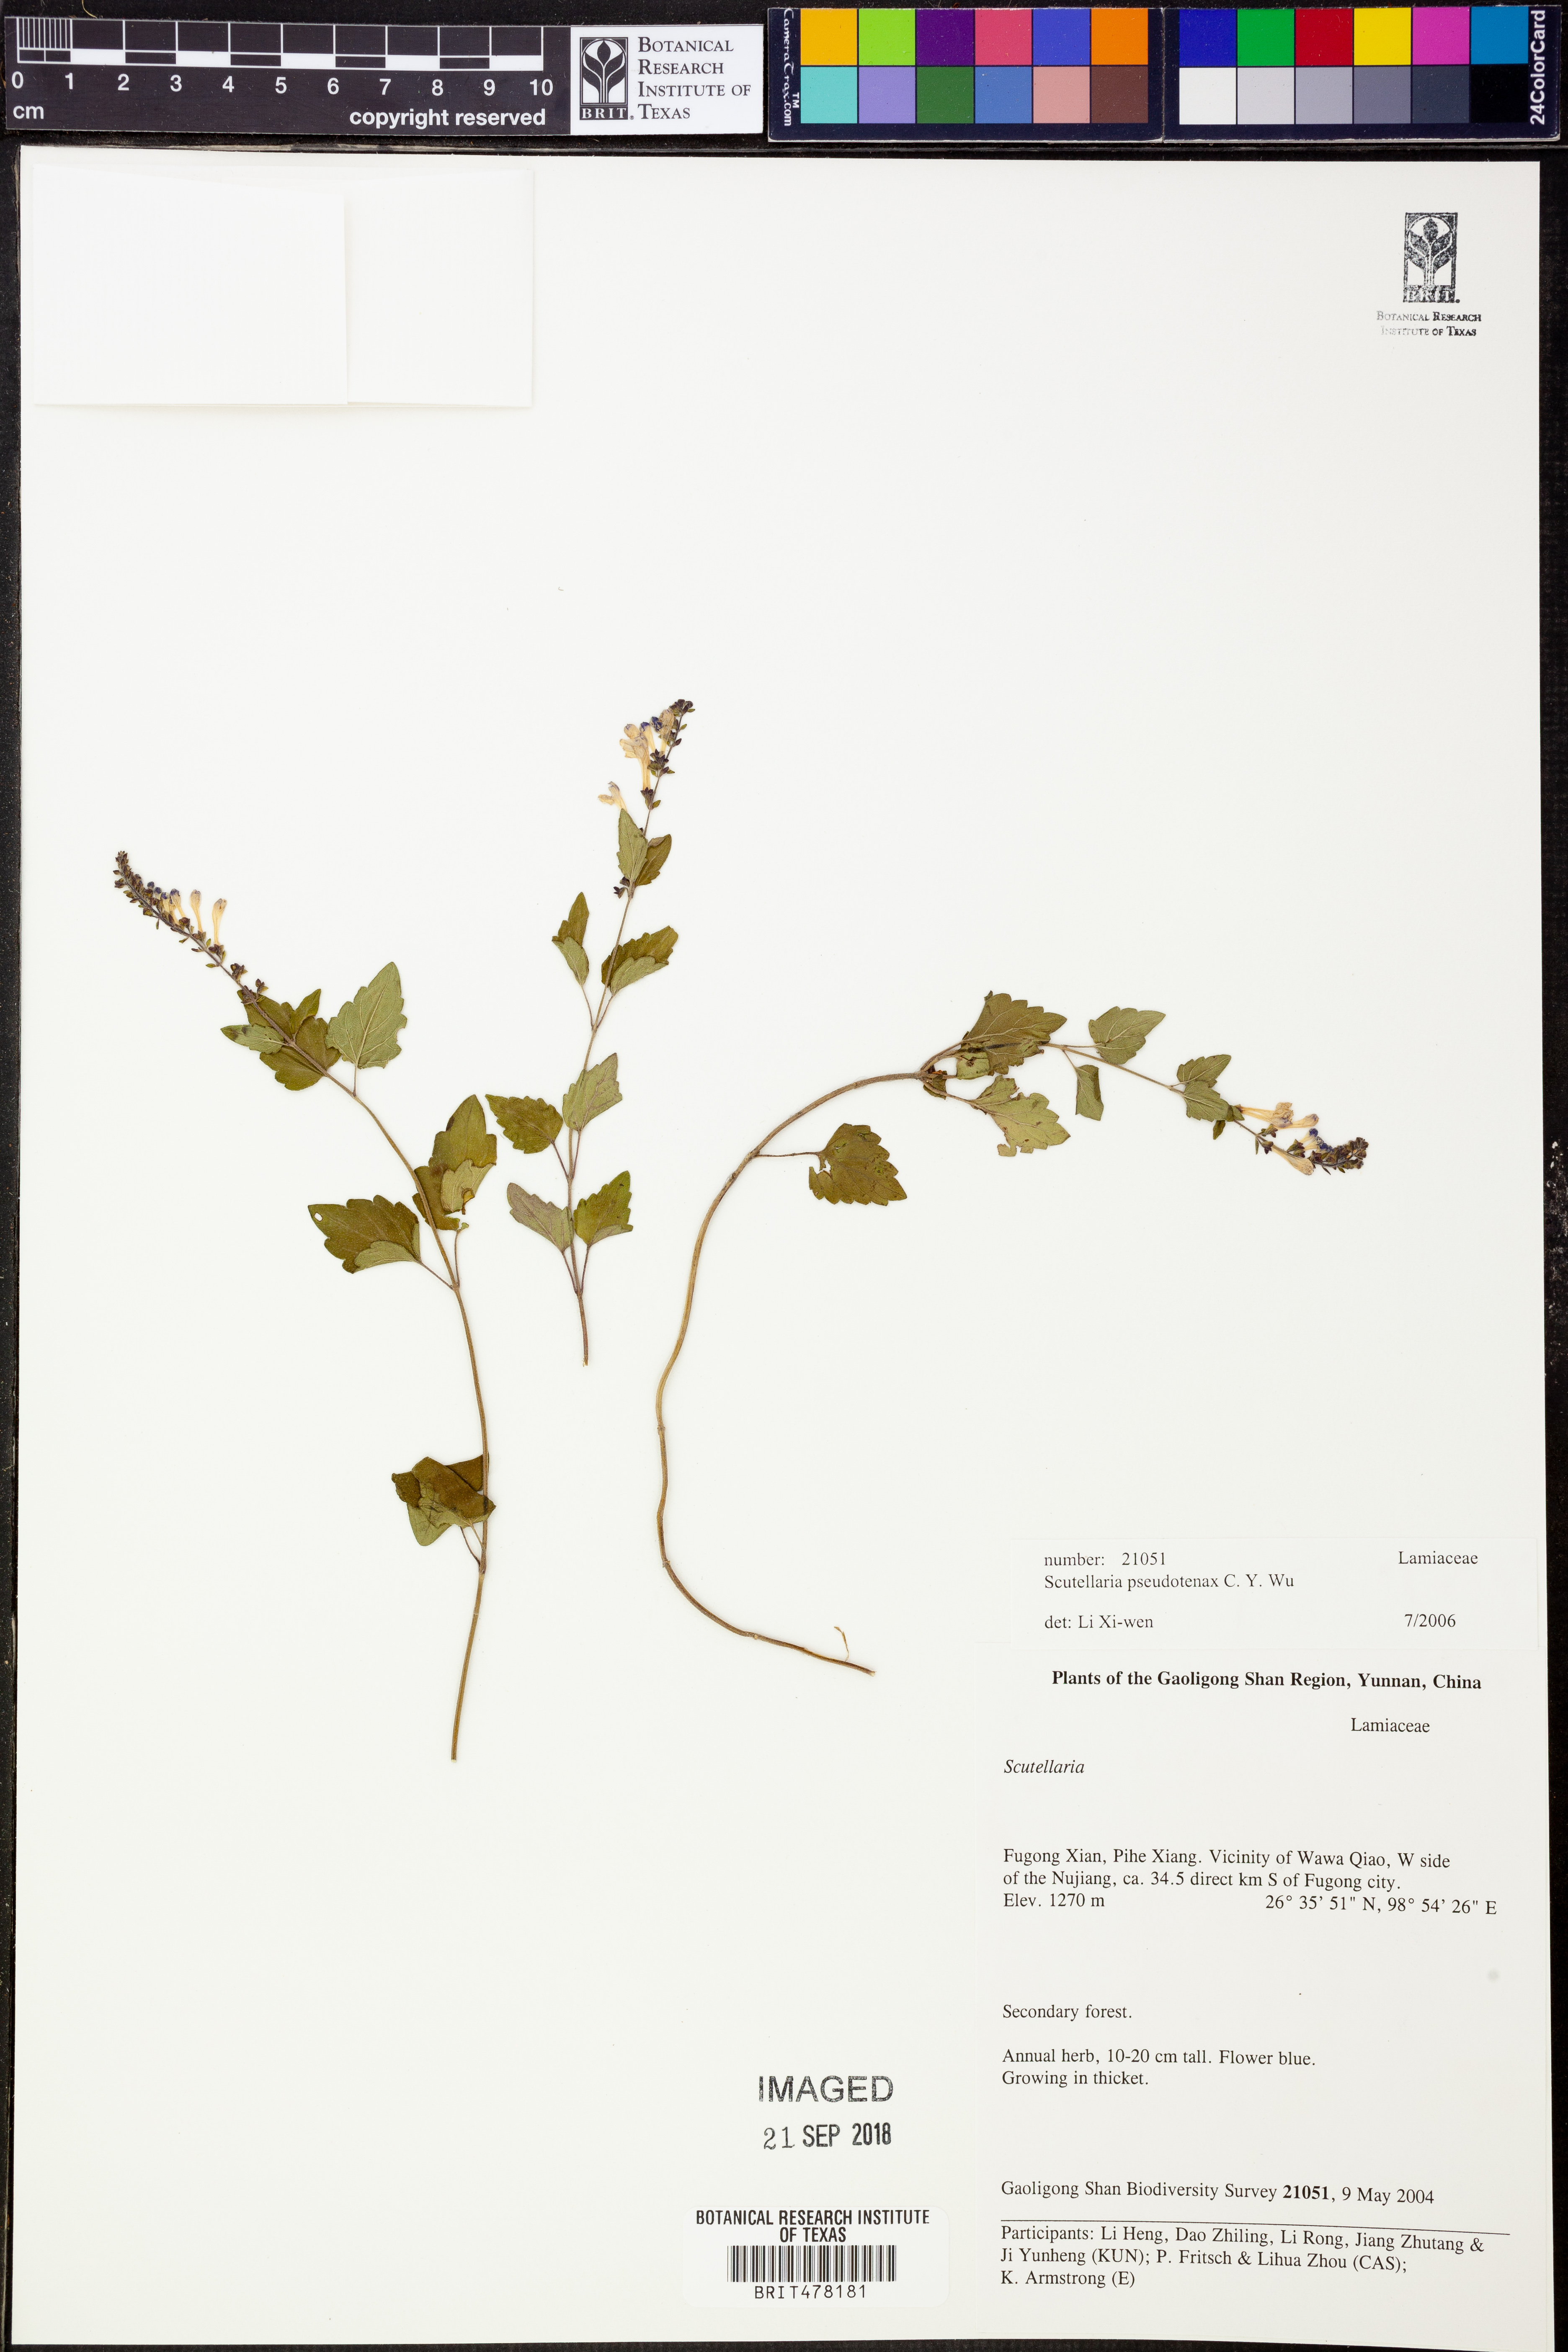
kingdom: Plantae
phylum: Tracheophyta
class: Magnoliopsida
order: Lamiales
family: Lamiaceae
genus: Scutellaria
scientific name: Scutellaria pseudotenax
